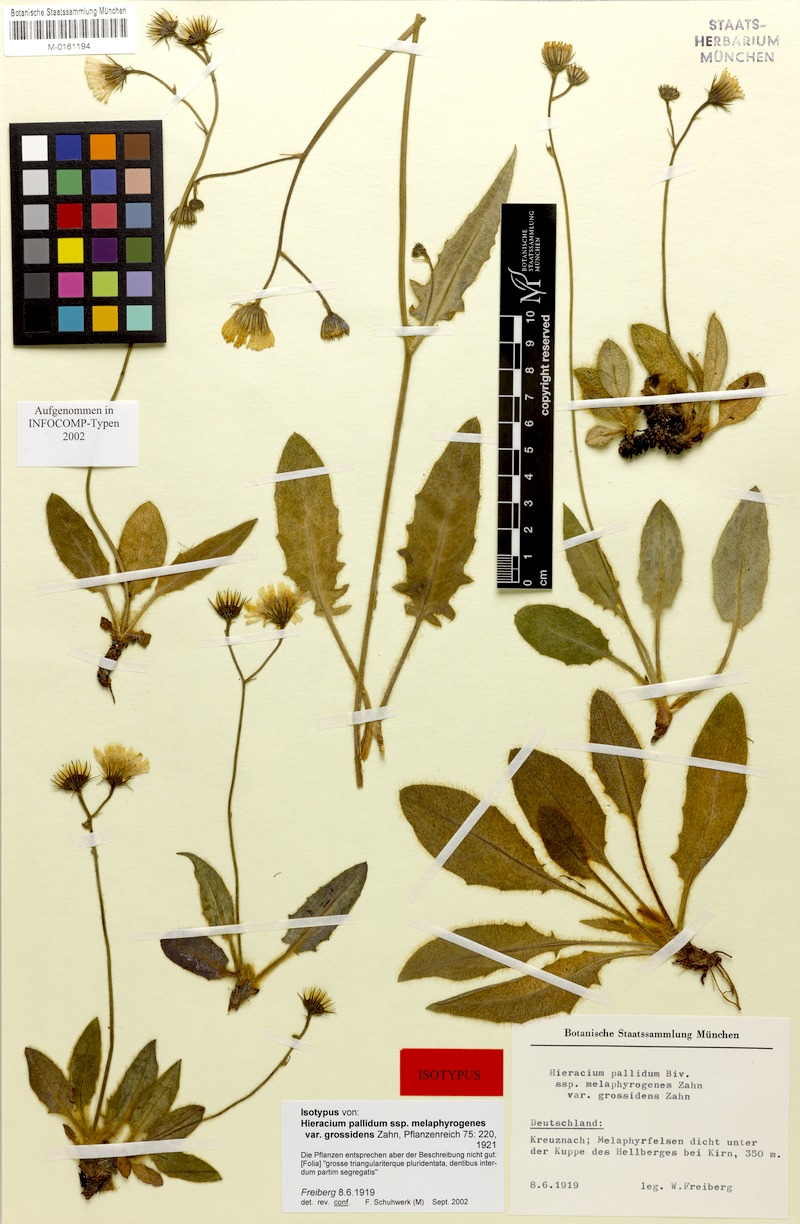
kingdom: Plantae
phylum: Tracheophyta
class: Magnoliopsida
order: Asterales
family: Asteraceae
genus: Hieracium
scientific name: Hieracium schmidtii
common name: Schmidt's hawkweed
